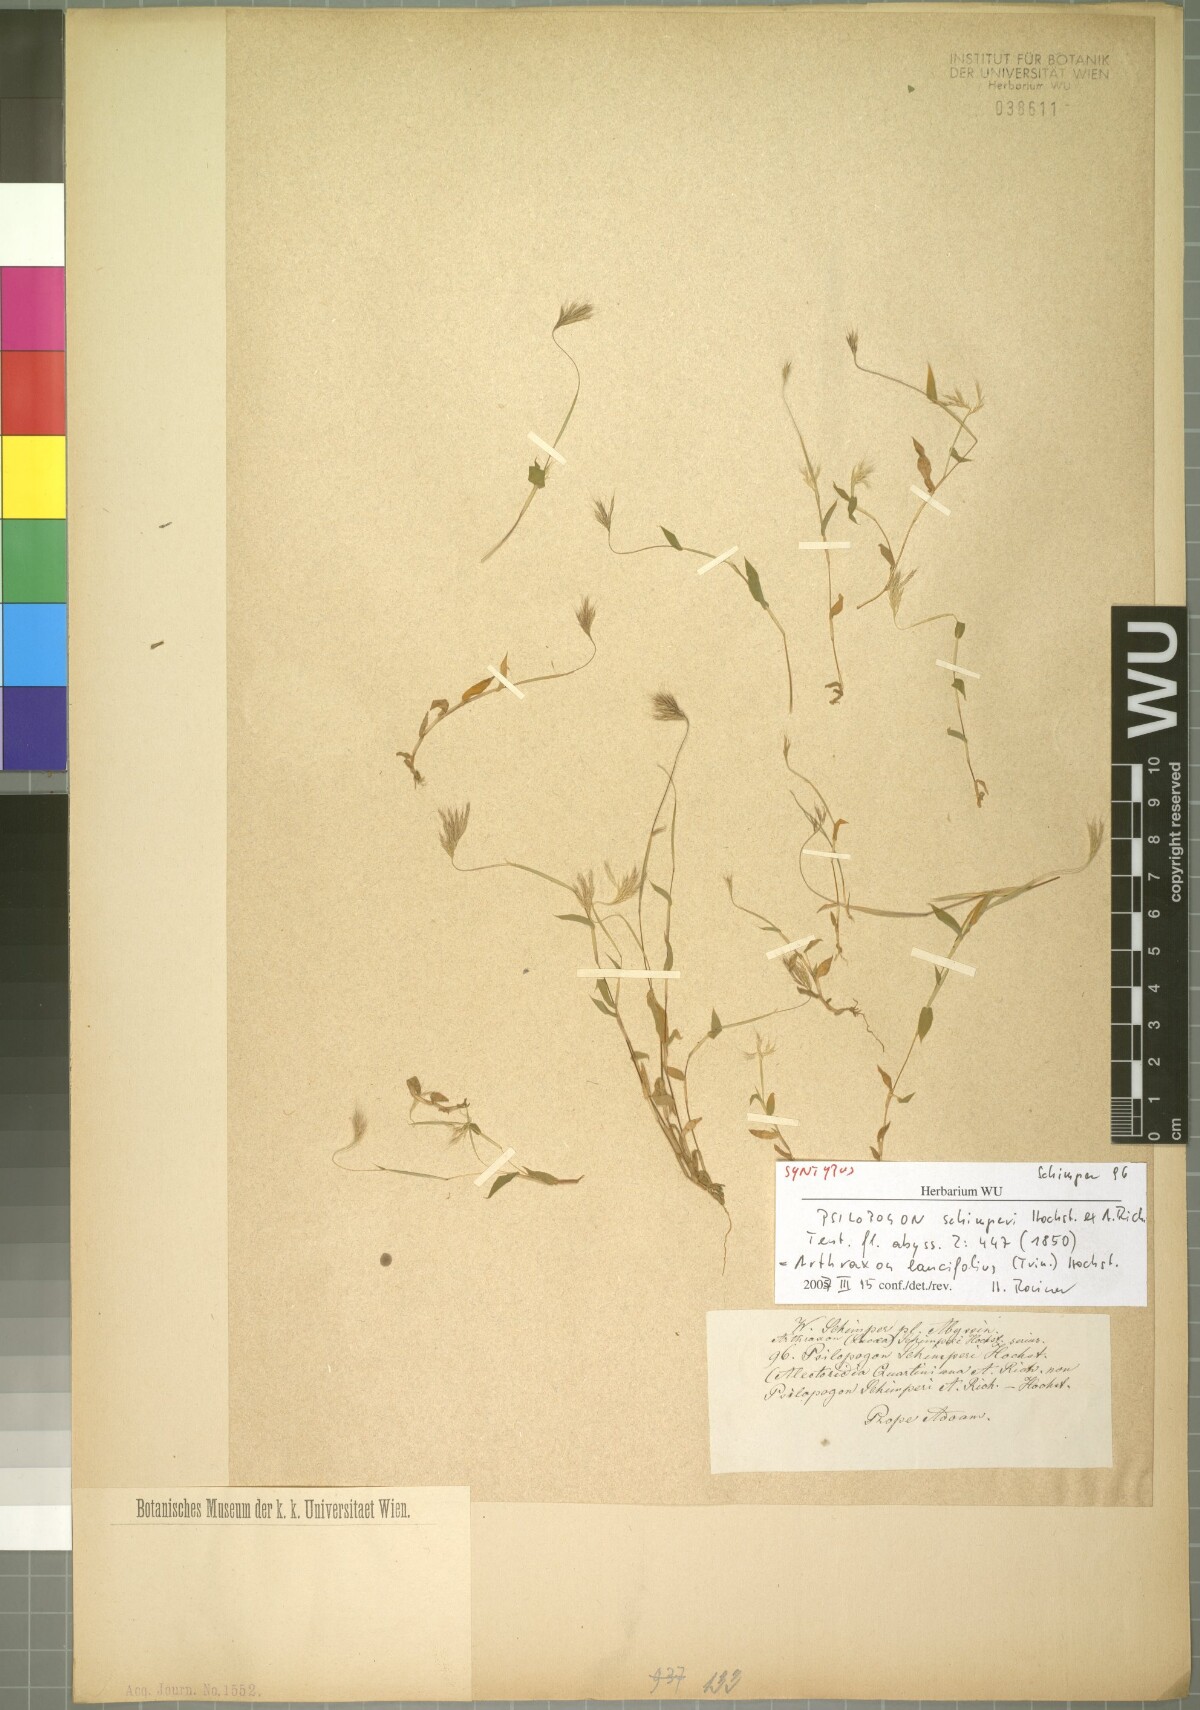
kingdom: Plantae
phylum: Tracheophyta
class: Liliopsida
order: Poales
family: Poaceae
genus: Arthraxon
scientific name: Arthraxon lancifolius
